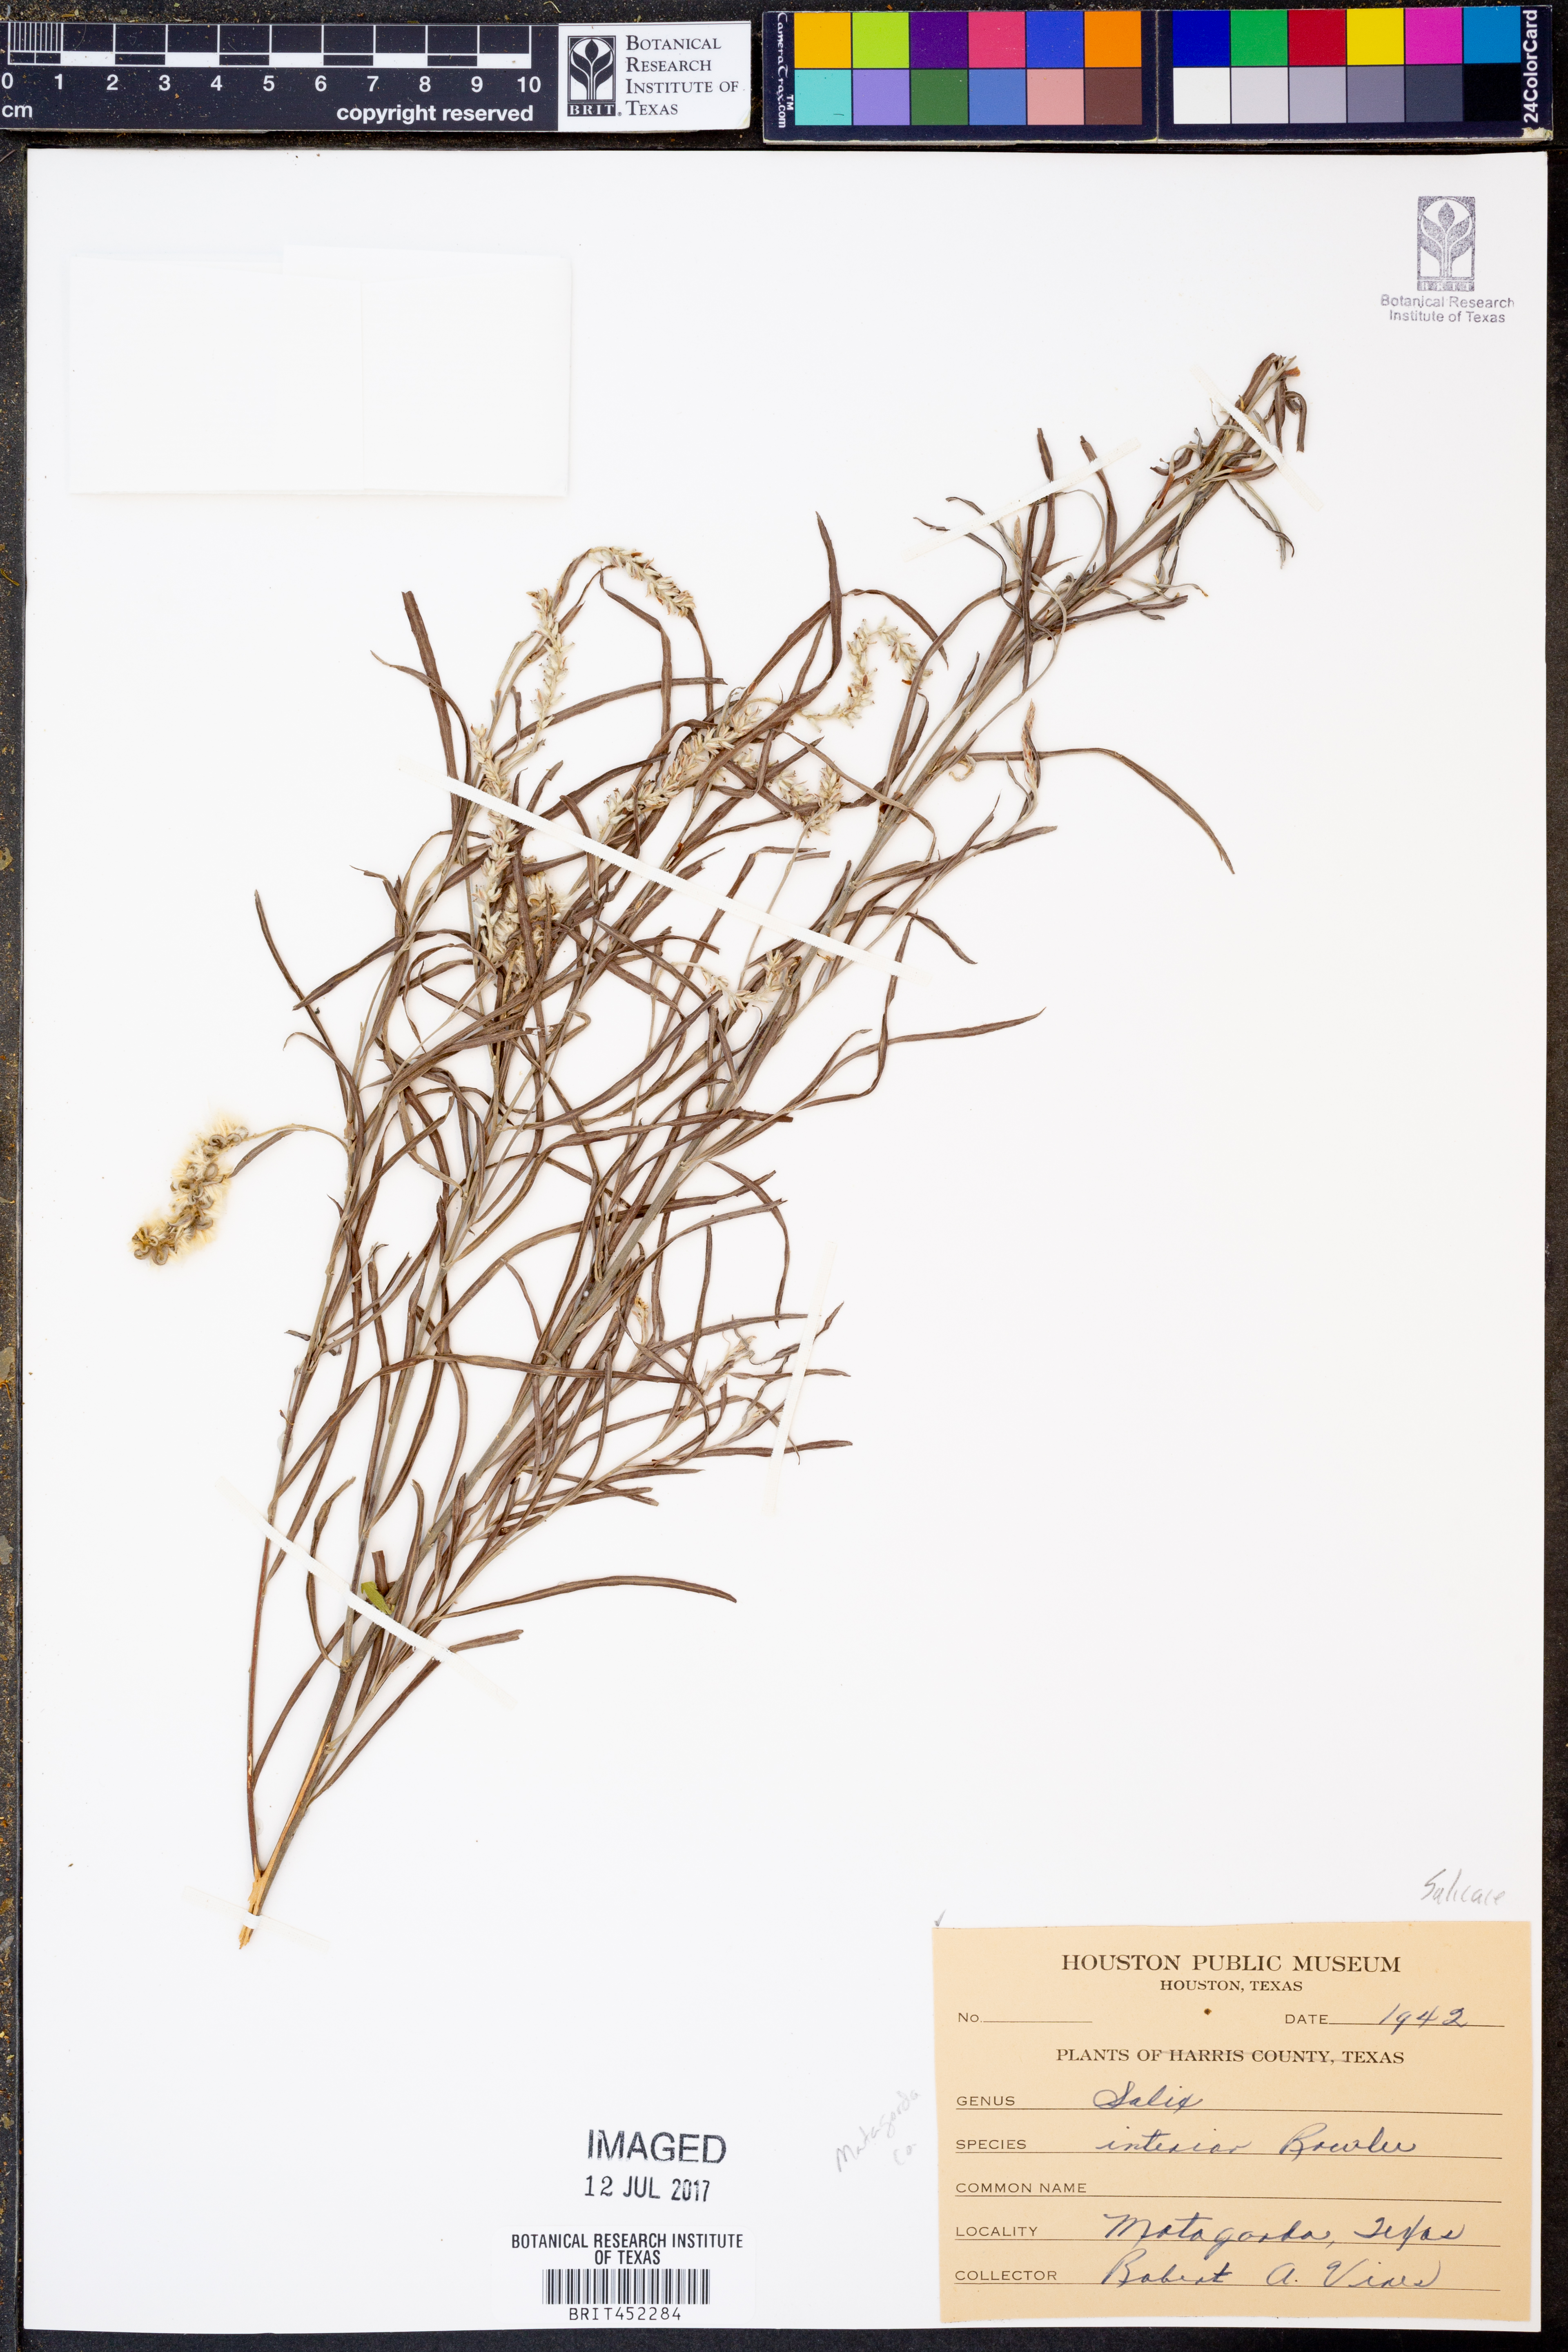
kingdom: Plantae
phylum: Tracheophyta
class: Magnoliopsida
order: Malpighiales
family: Salicaceae
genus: Salix
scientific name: Salix interior
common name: Sandbar willow
